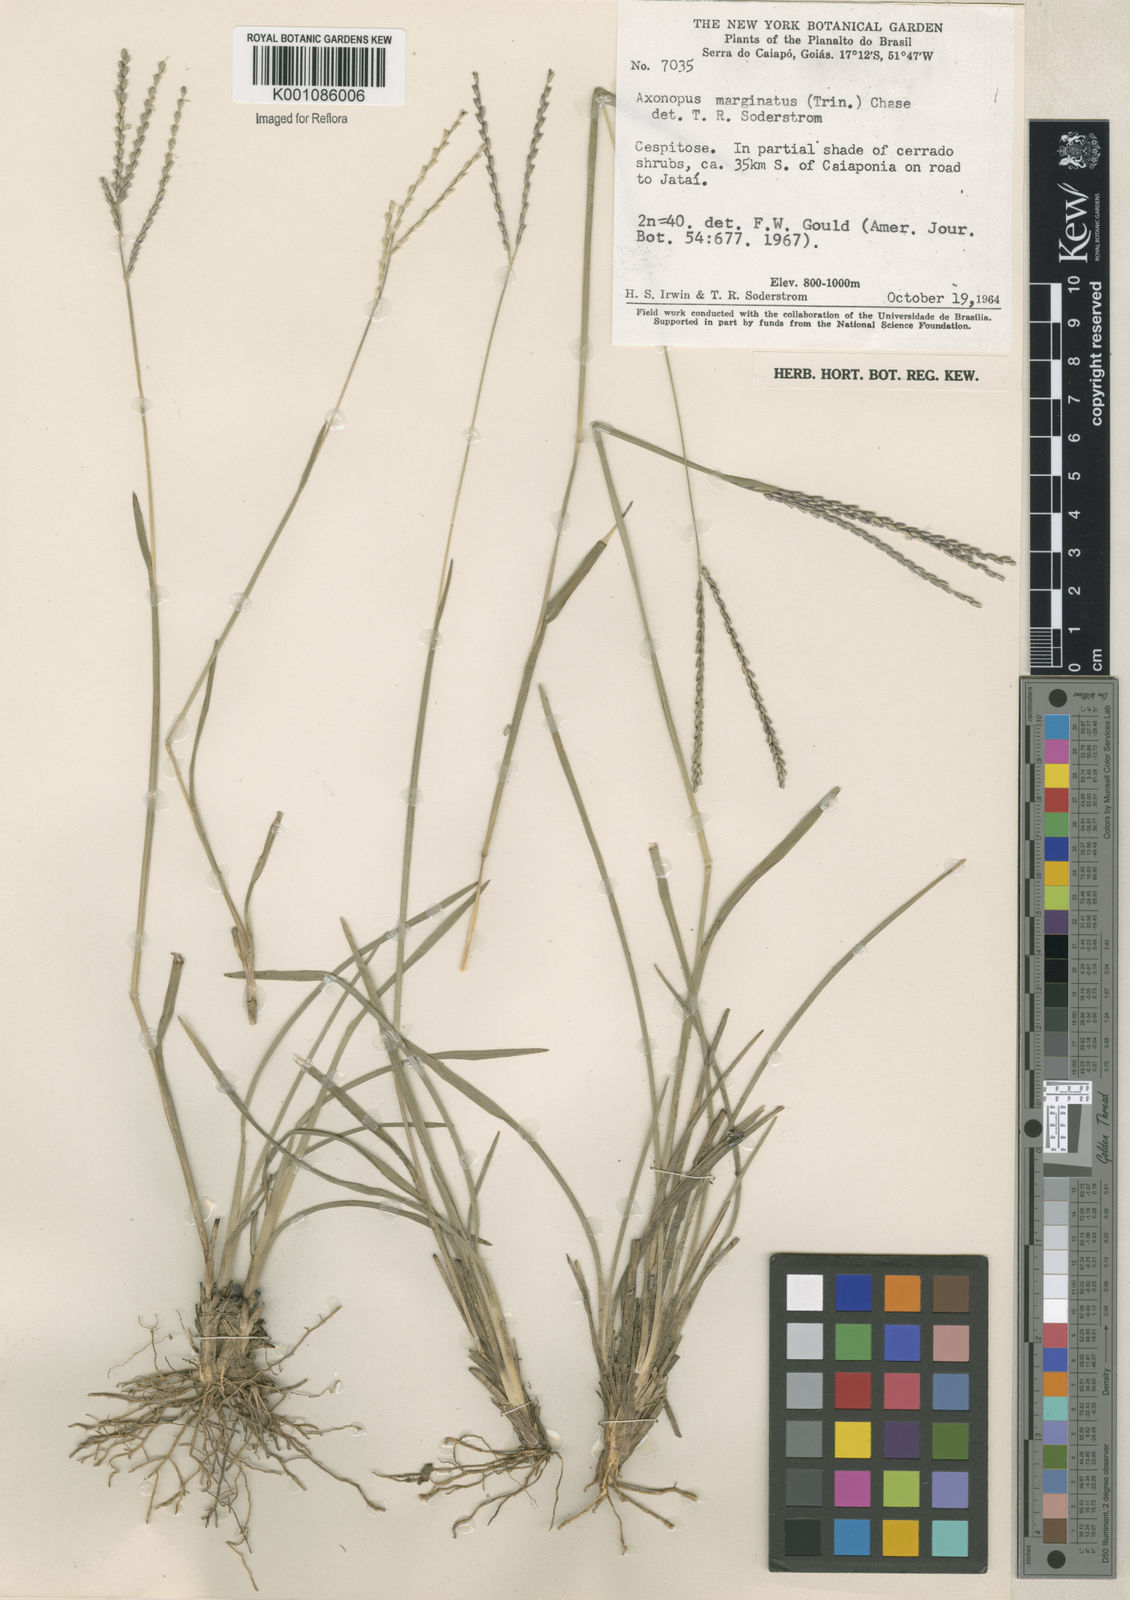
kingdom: Plantae
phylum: Tracheophyta
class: Liliopsida
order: Poales
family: Poaceae
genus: Axonopus
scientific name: Axonopus
